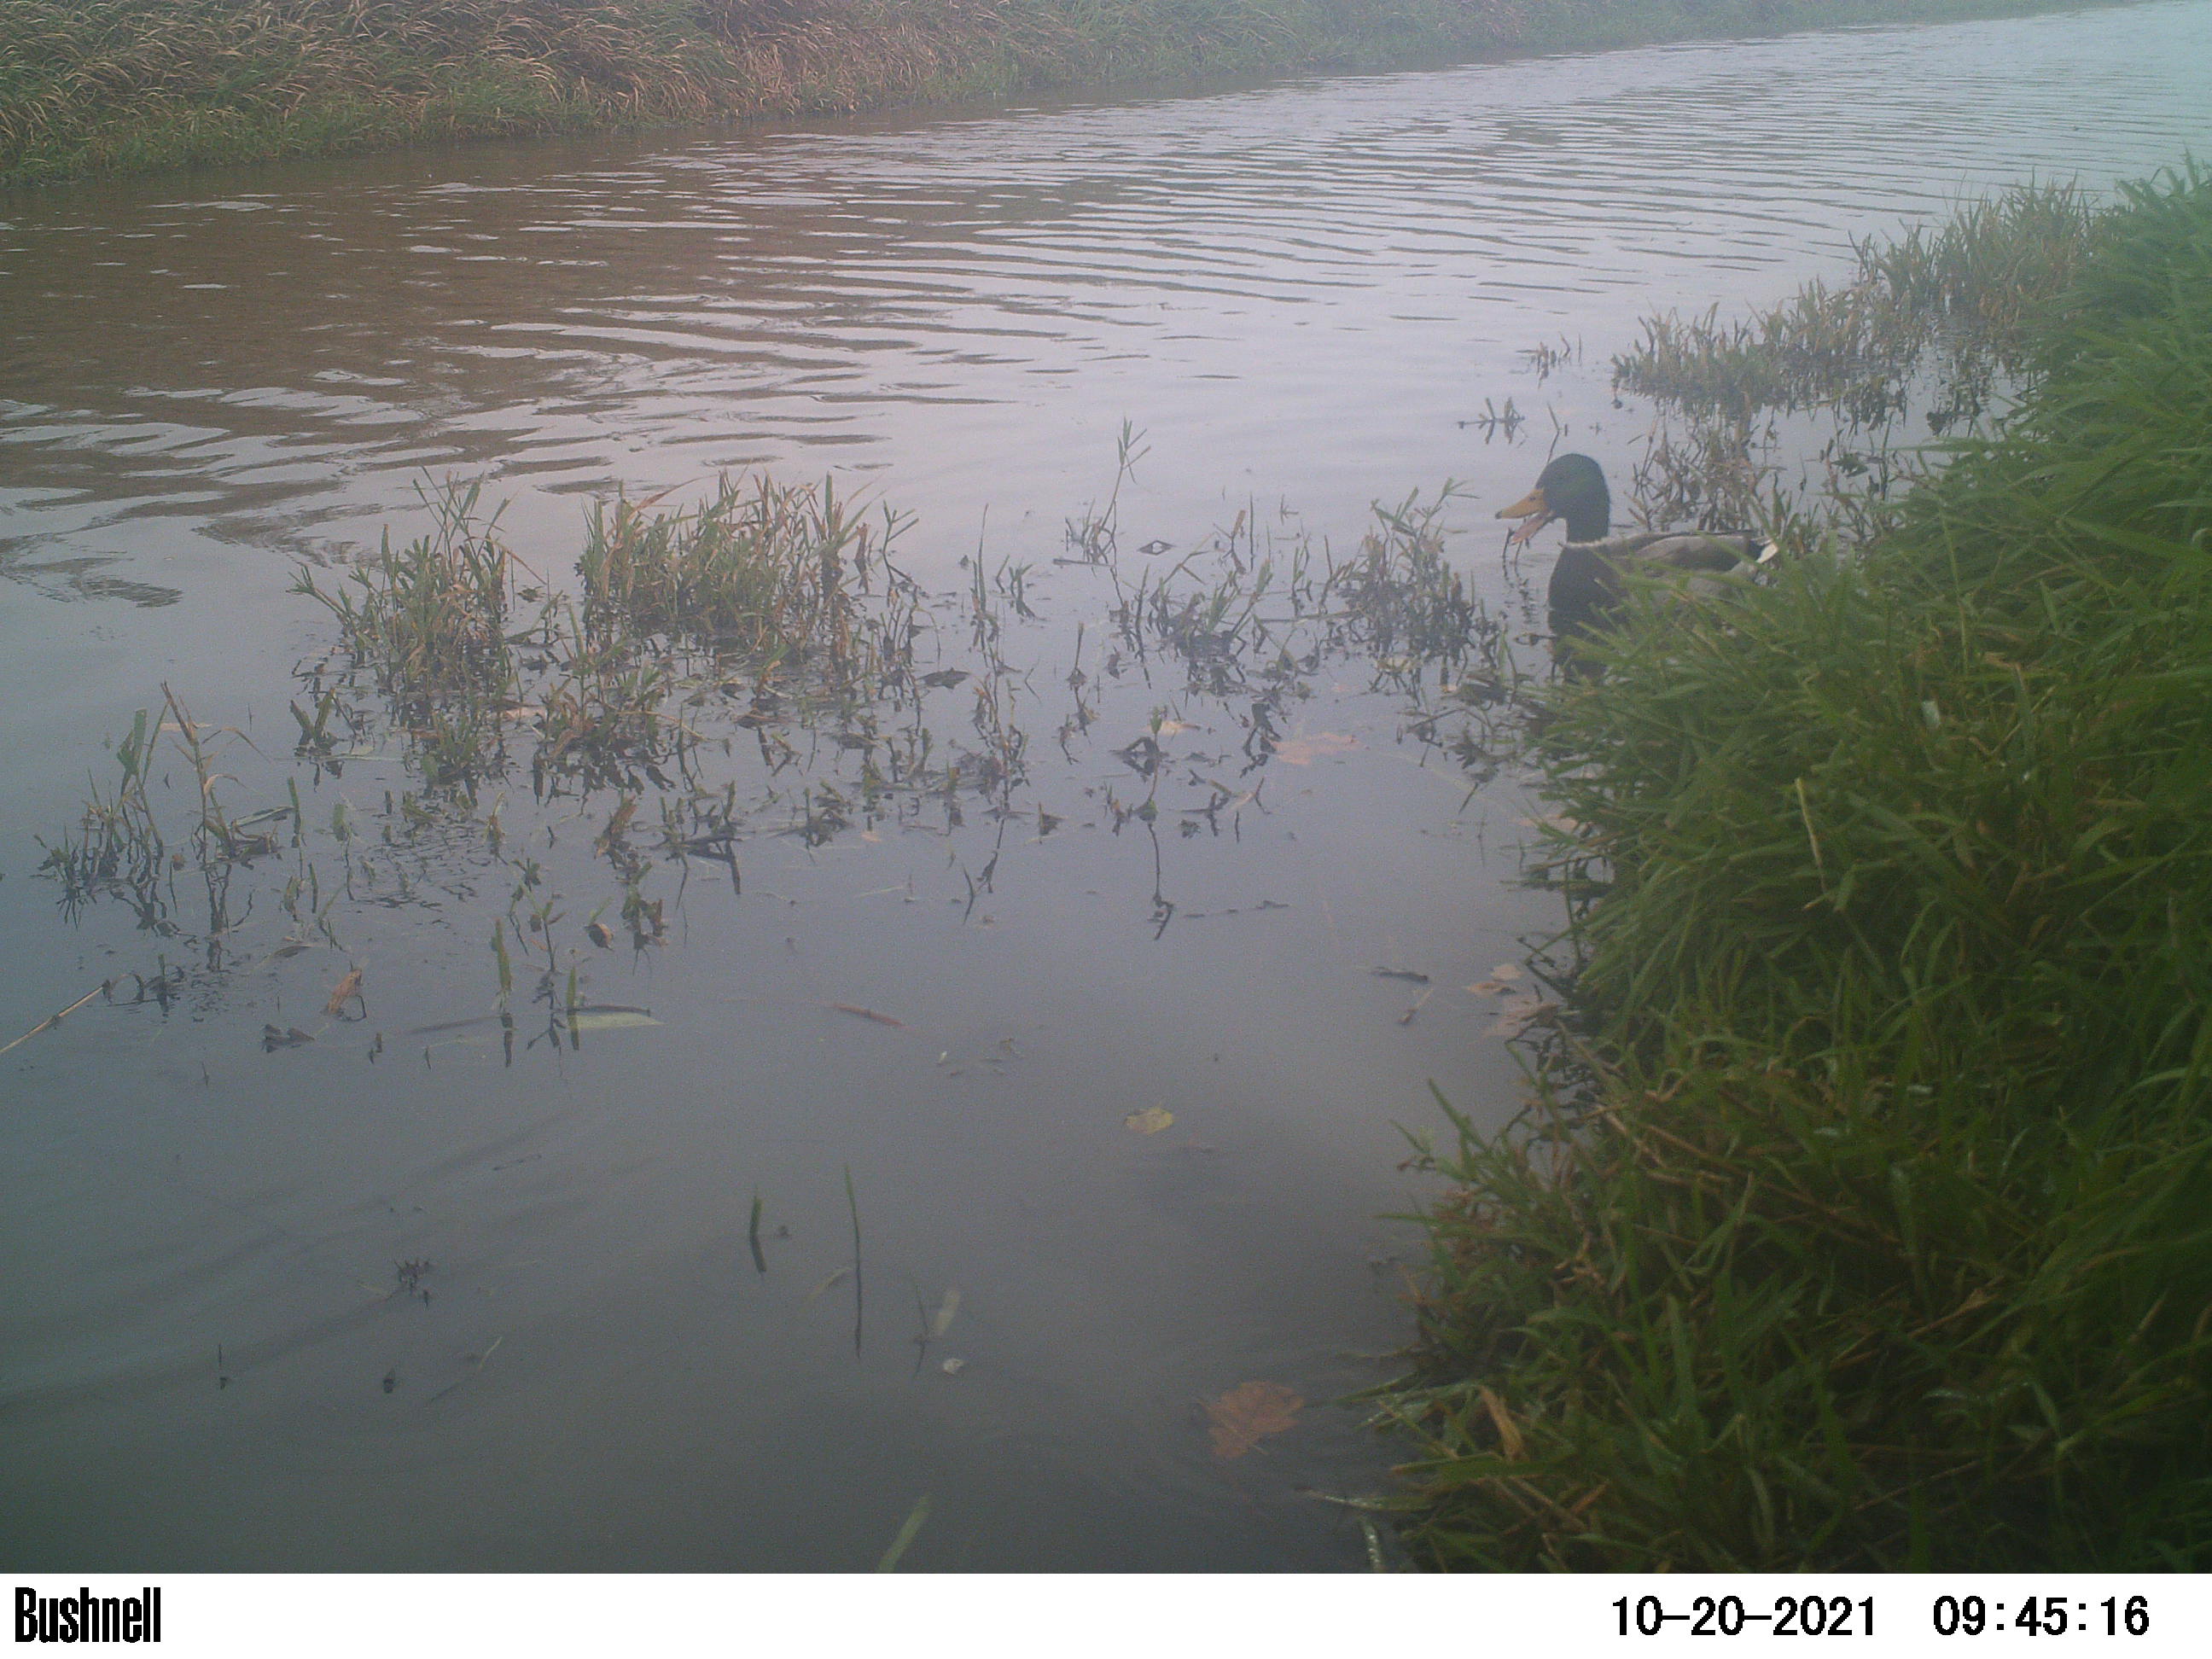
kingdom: Animalia
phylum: Chordata
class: Aves
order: Anseriformes
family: Anatidae
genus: Anas
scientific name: Anas
